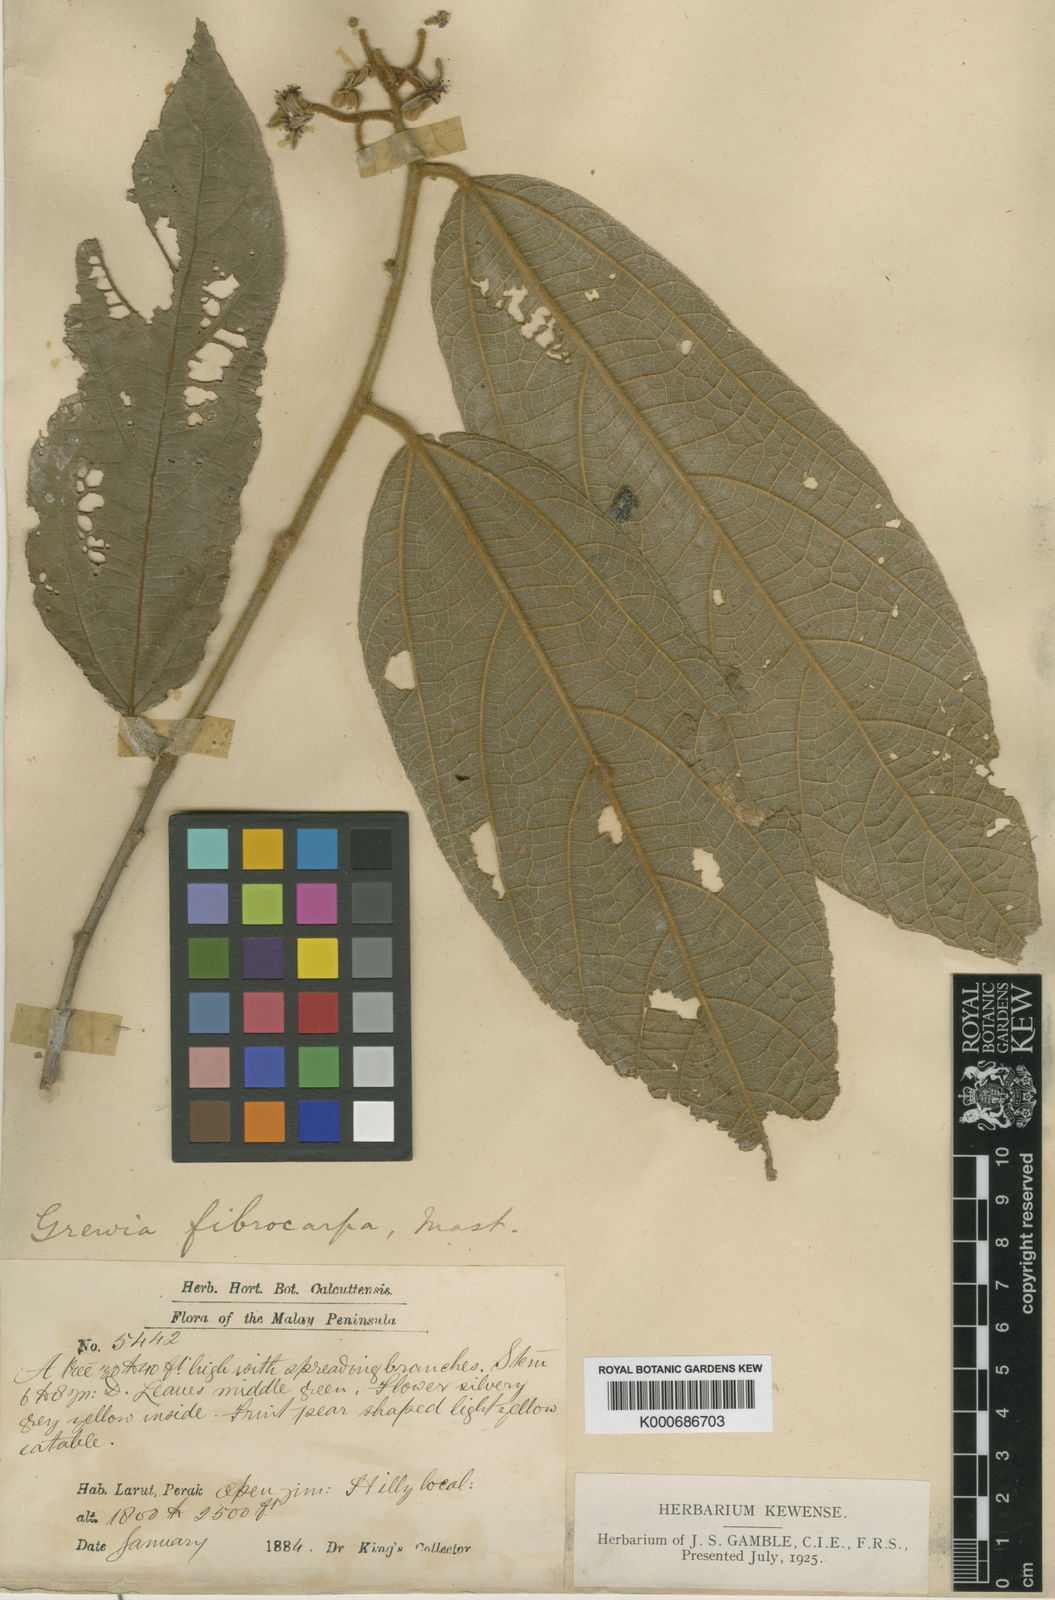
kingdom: Plantae
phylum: Tracheophyta
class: Magnoliopsida
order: Malvales
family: Malvaceae
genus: Microcos
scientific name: Microcos fibrocarpa
